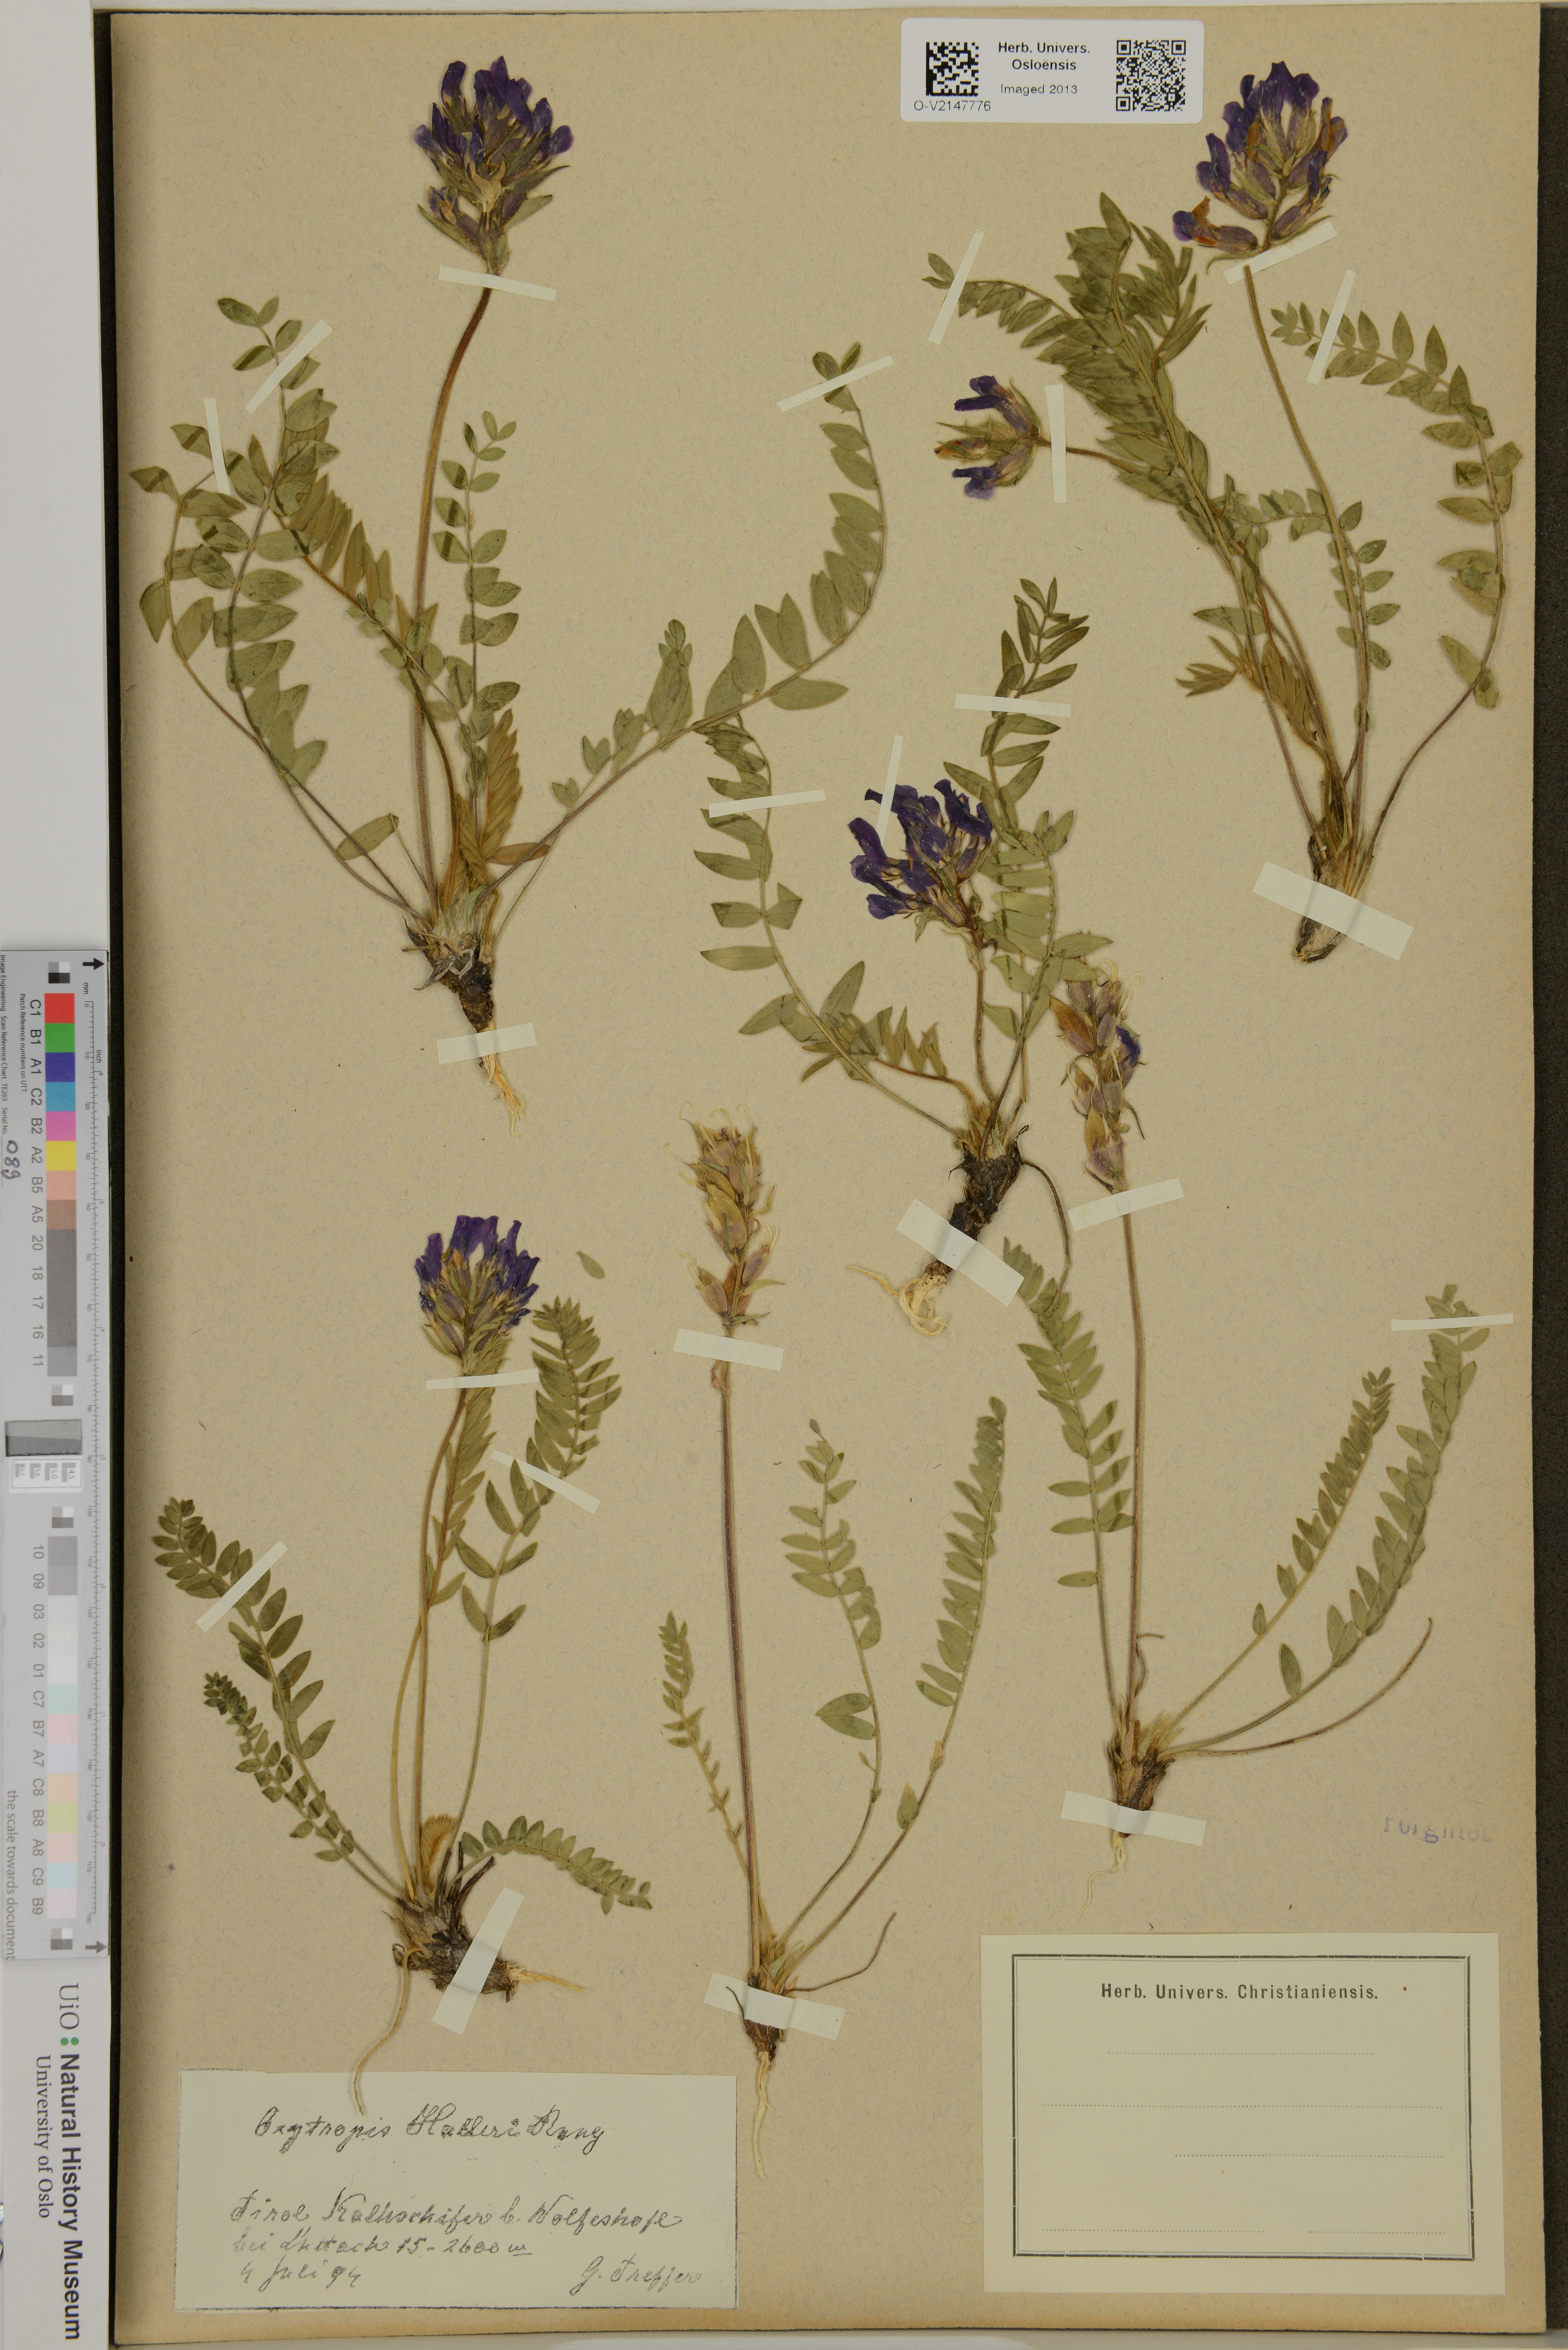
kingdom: Plantae
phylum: Tracheophyta
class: Magnoliopsida
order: Fabales
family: Fabaceae
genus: Oxytropis
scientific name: Oxytropis halleri
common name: Purple oxytropis
